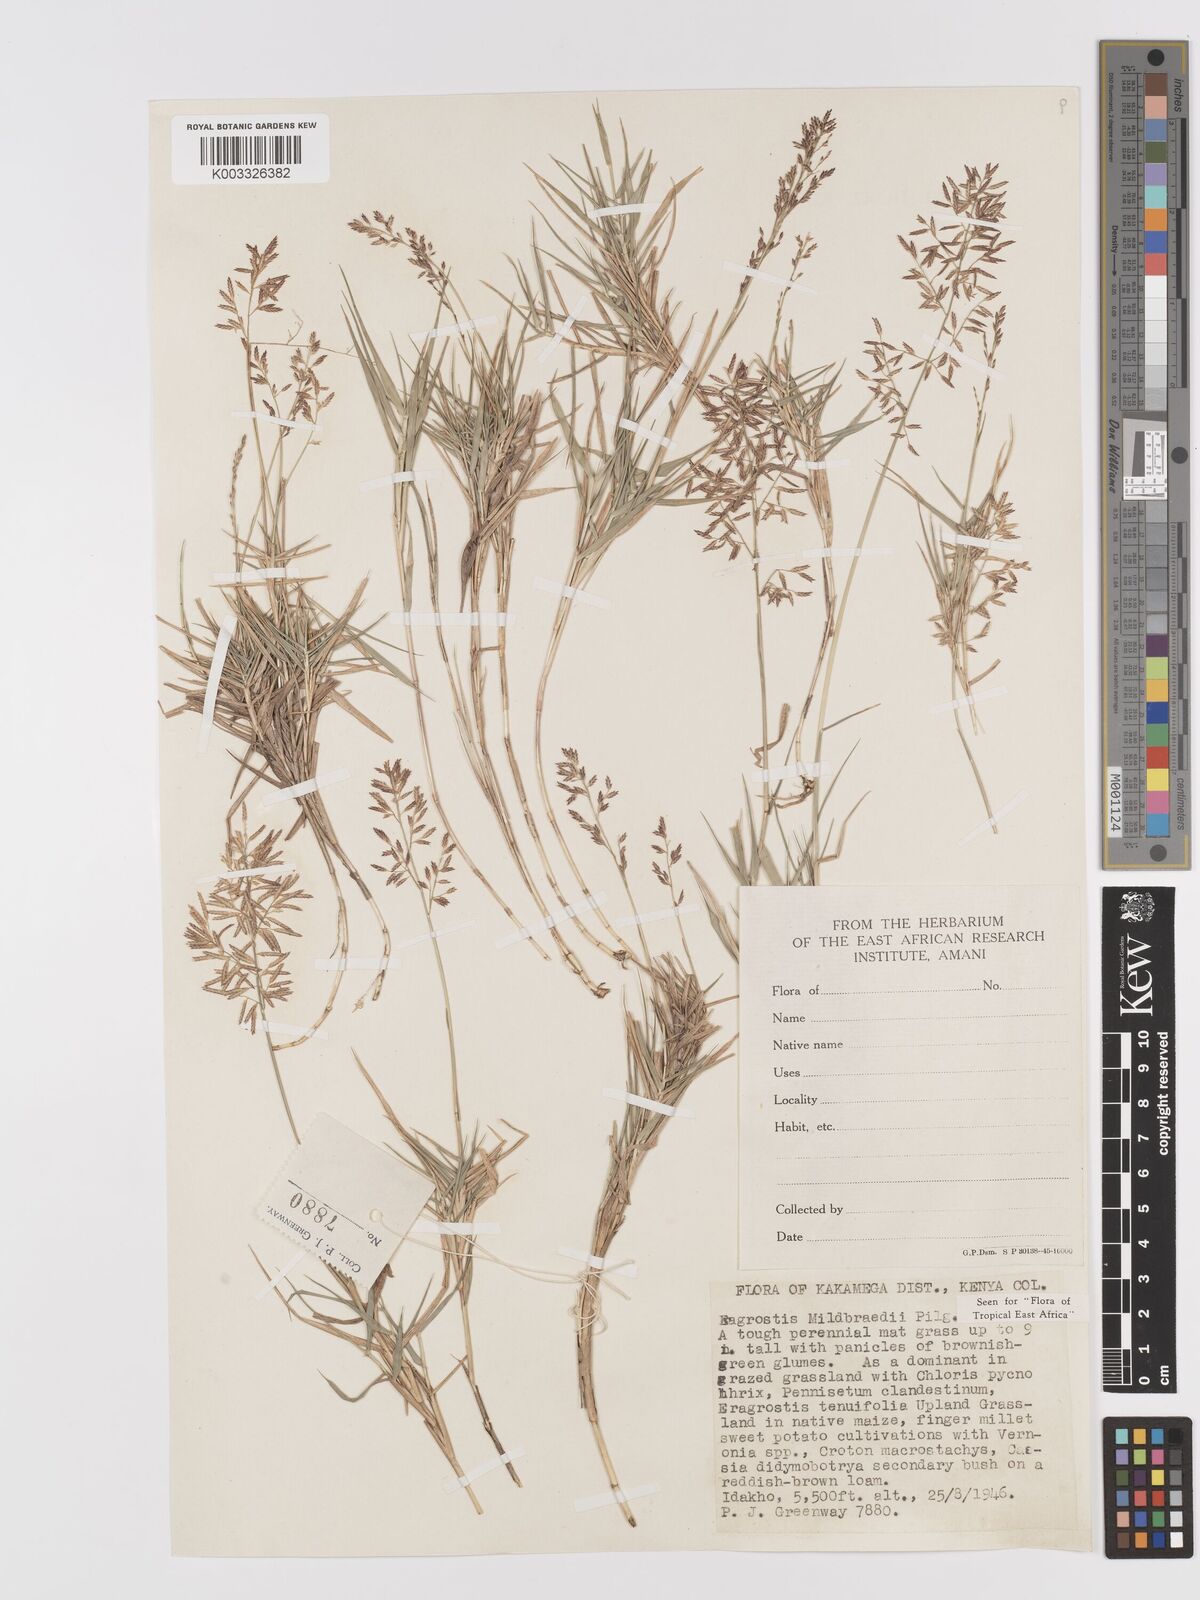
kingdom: Plantae
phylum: Tracheophyta
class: Liliopsida
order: Poales
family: Poaceae
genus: Eragrostis
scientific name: Eragrostis mildbraedii
